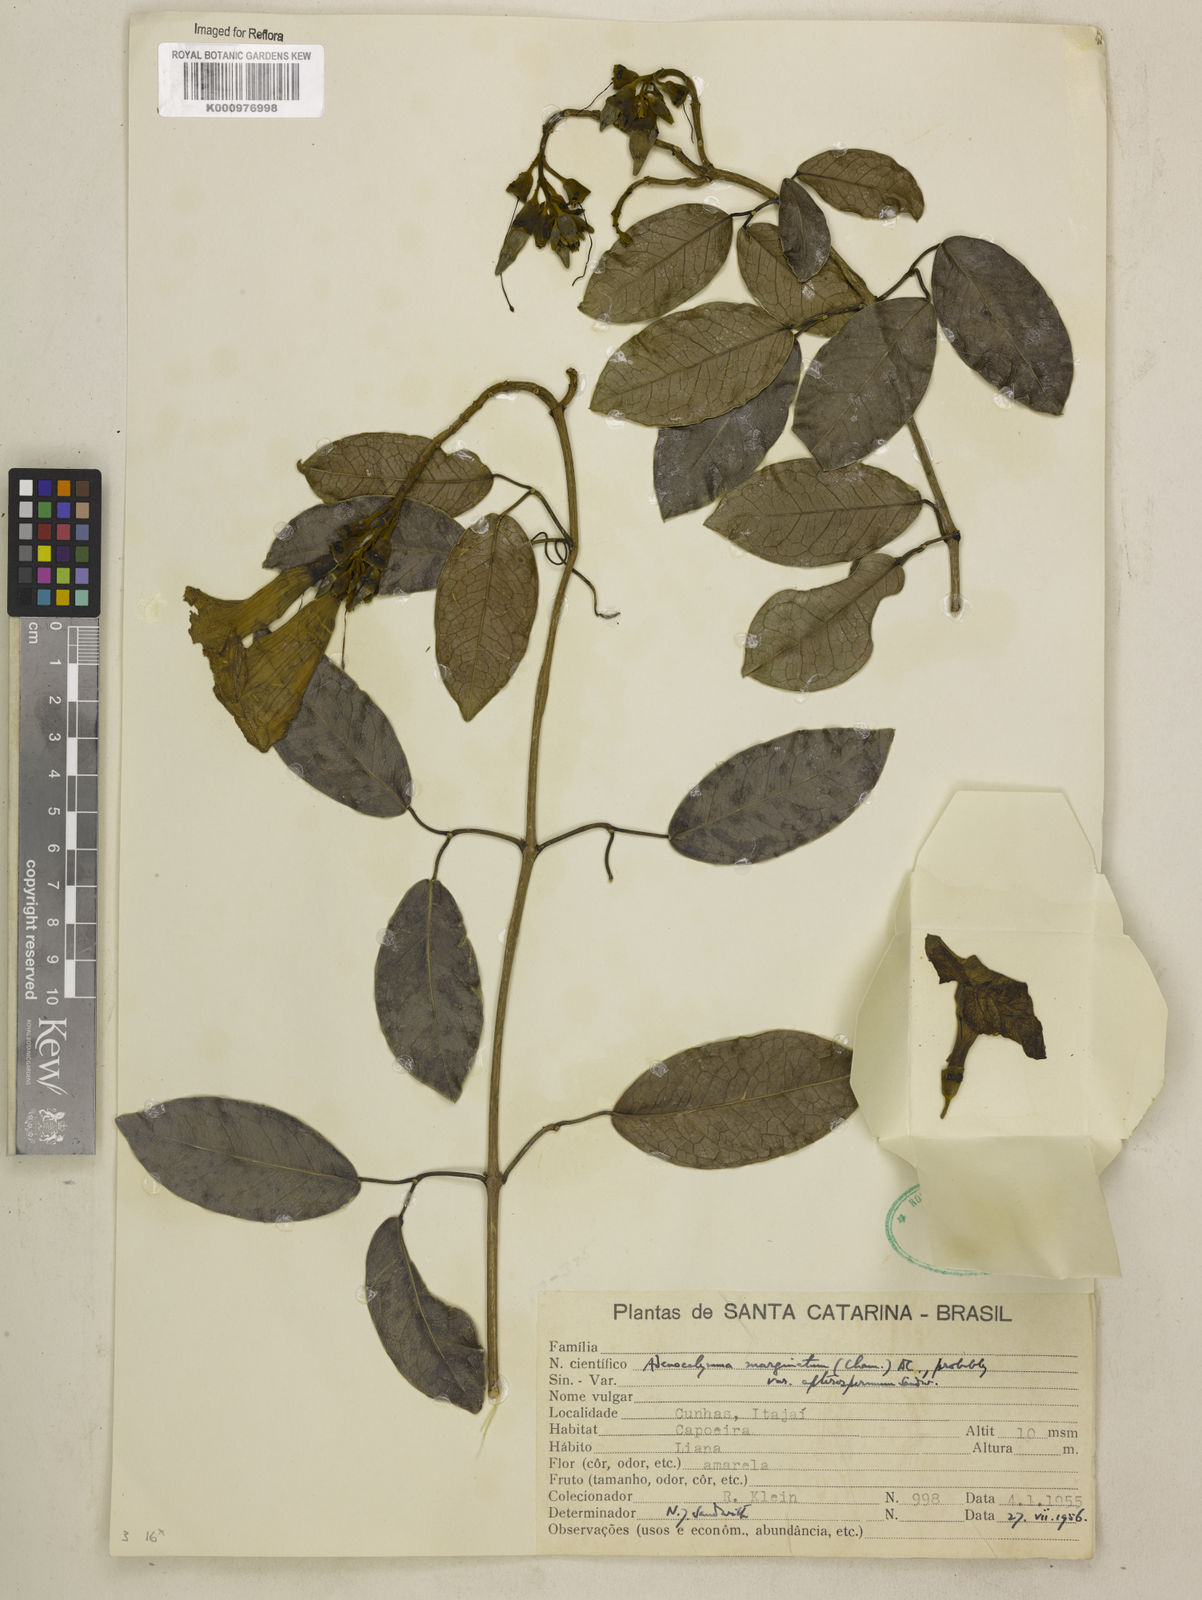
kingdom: Plantae
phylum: Tracheophyta
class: Magnoliopsida
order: Lamiales
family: Bignoniaceae
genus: Adenocalymma
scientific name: Adenocalymma apterospermum
